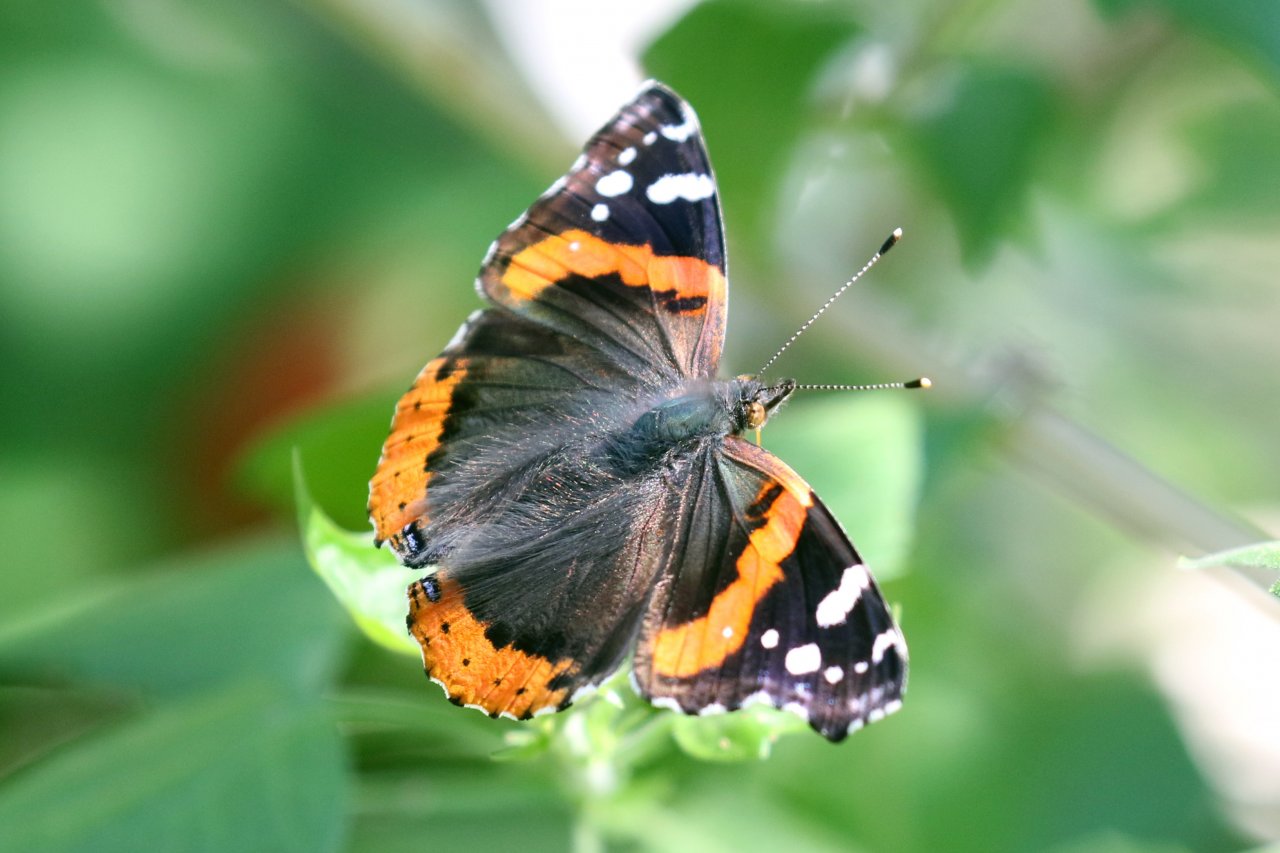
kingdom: Animalia
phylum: Arthropoda
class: Insecta
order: Lepidoptera
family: Nymphalidae
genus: Vanessa
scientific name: Vanessa atalanta
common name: Red Admiral
